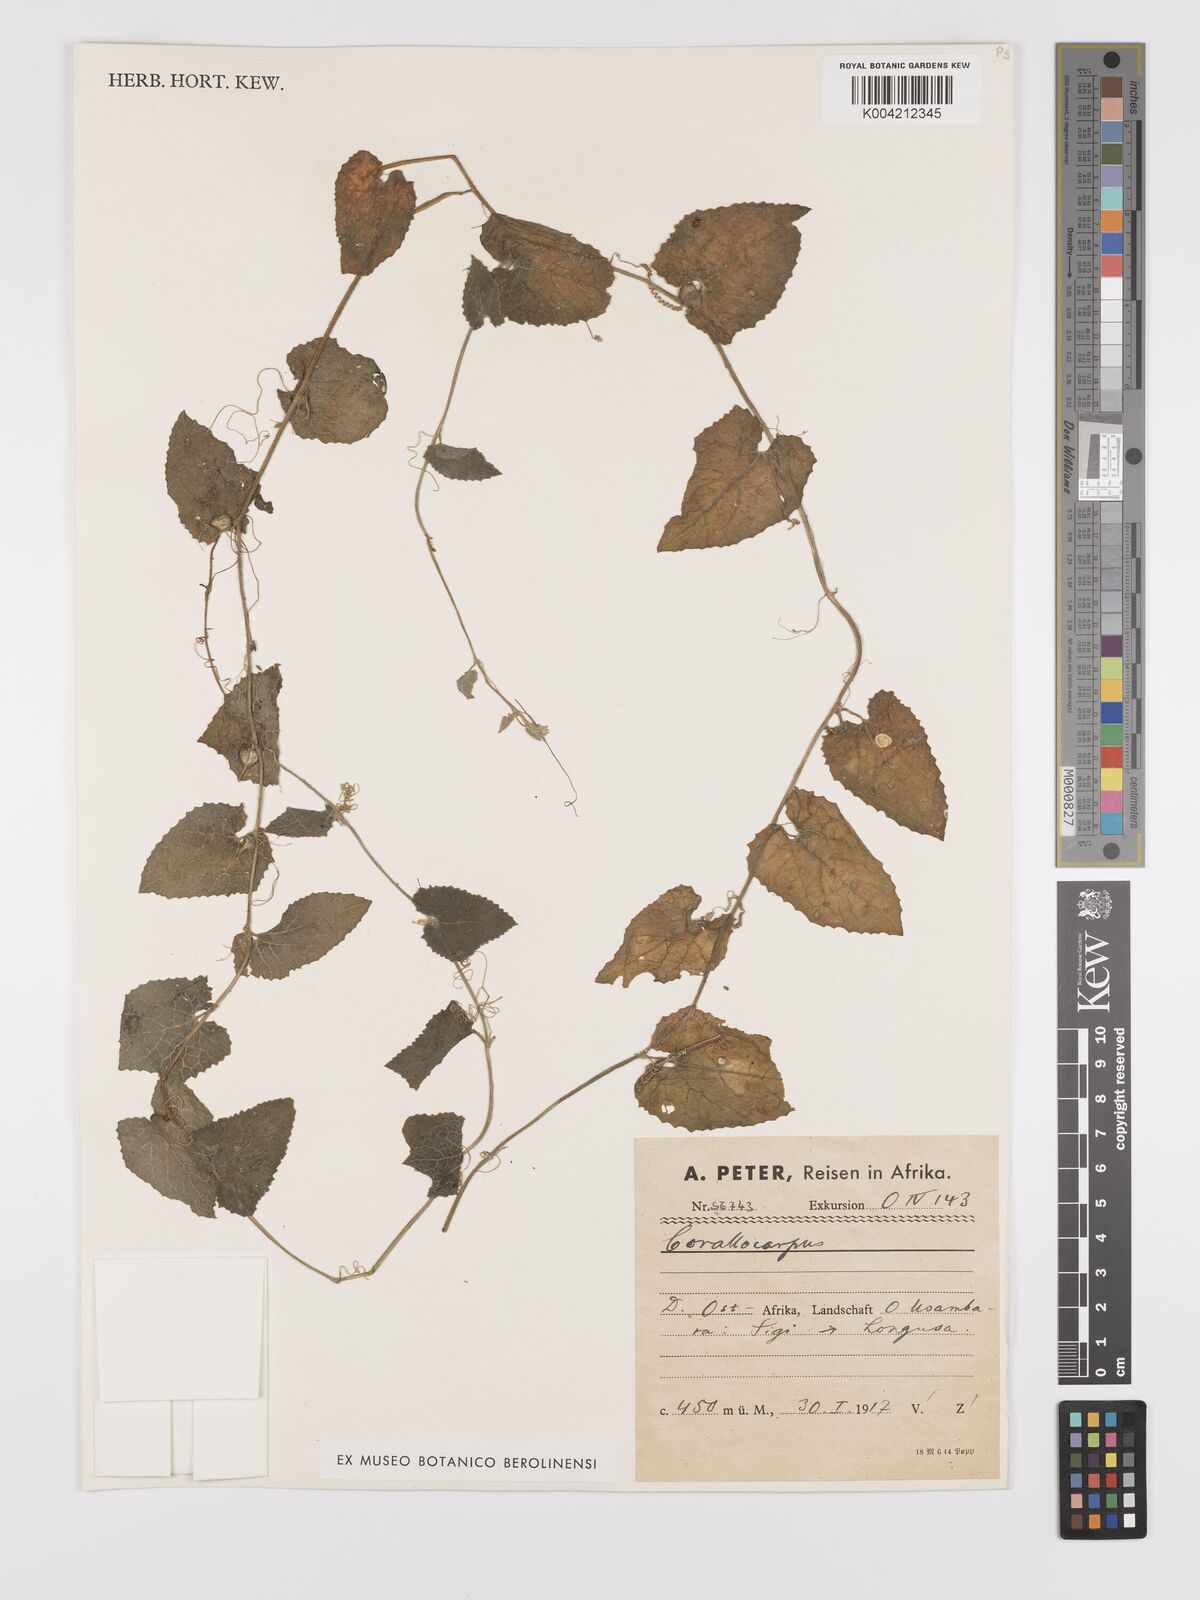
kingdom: Plantae
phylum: Tracheophyta
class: Magnoliopsida
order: Cucurbitales
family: Cucurbitaceae
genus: Kedrostis
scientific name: Kedrostis foetidissima
